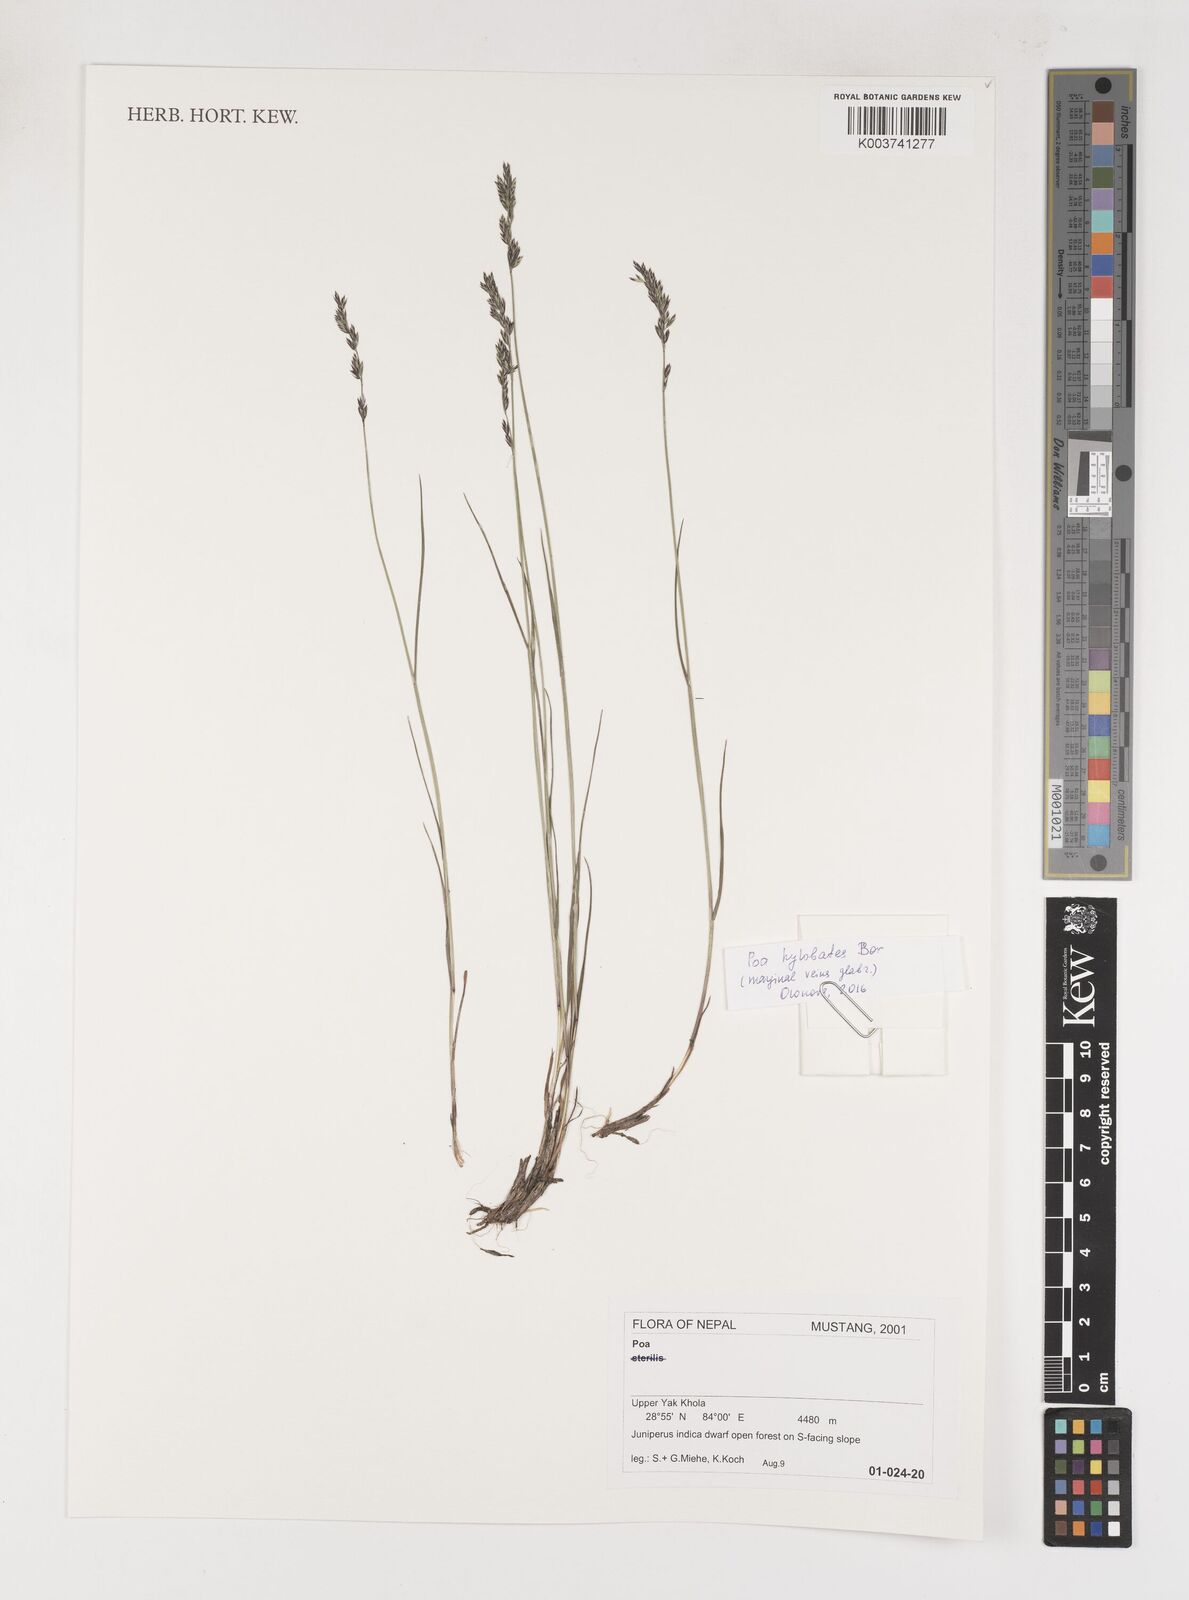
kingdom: Plantae
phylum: Tracheophyta
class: Liliopsida
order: Poales
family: Poaceae
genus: Poa
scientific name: Poa
